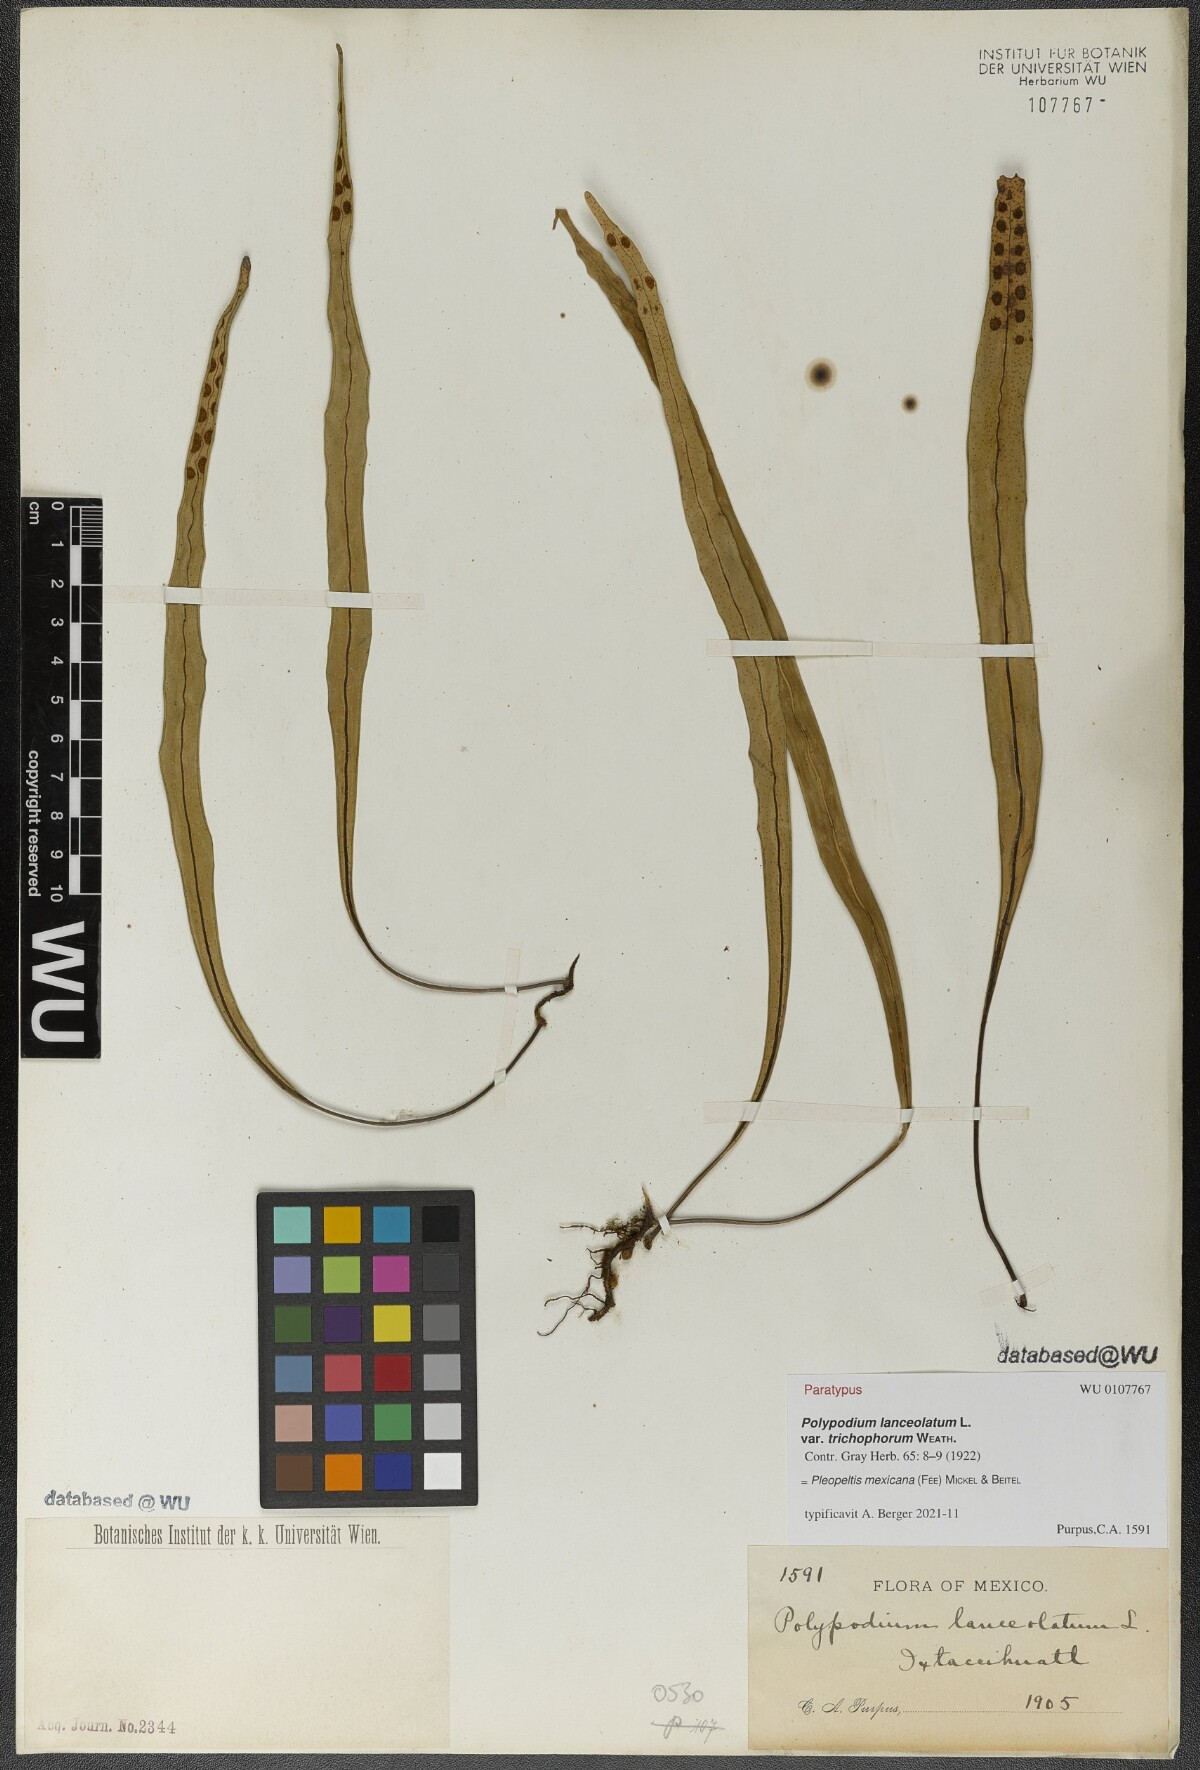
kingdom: Plantae
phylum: Tracheophyta
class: Polypodiopsida
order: Polypodiales
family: Polypodiaceae
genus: Pleopeltis
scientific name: Pleopeltis mexicana
